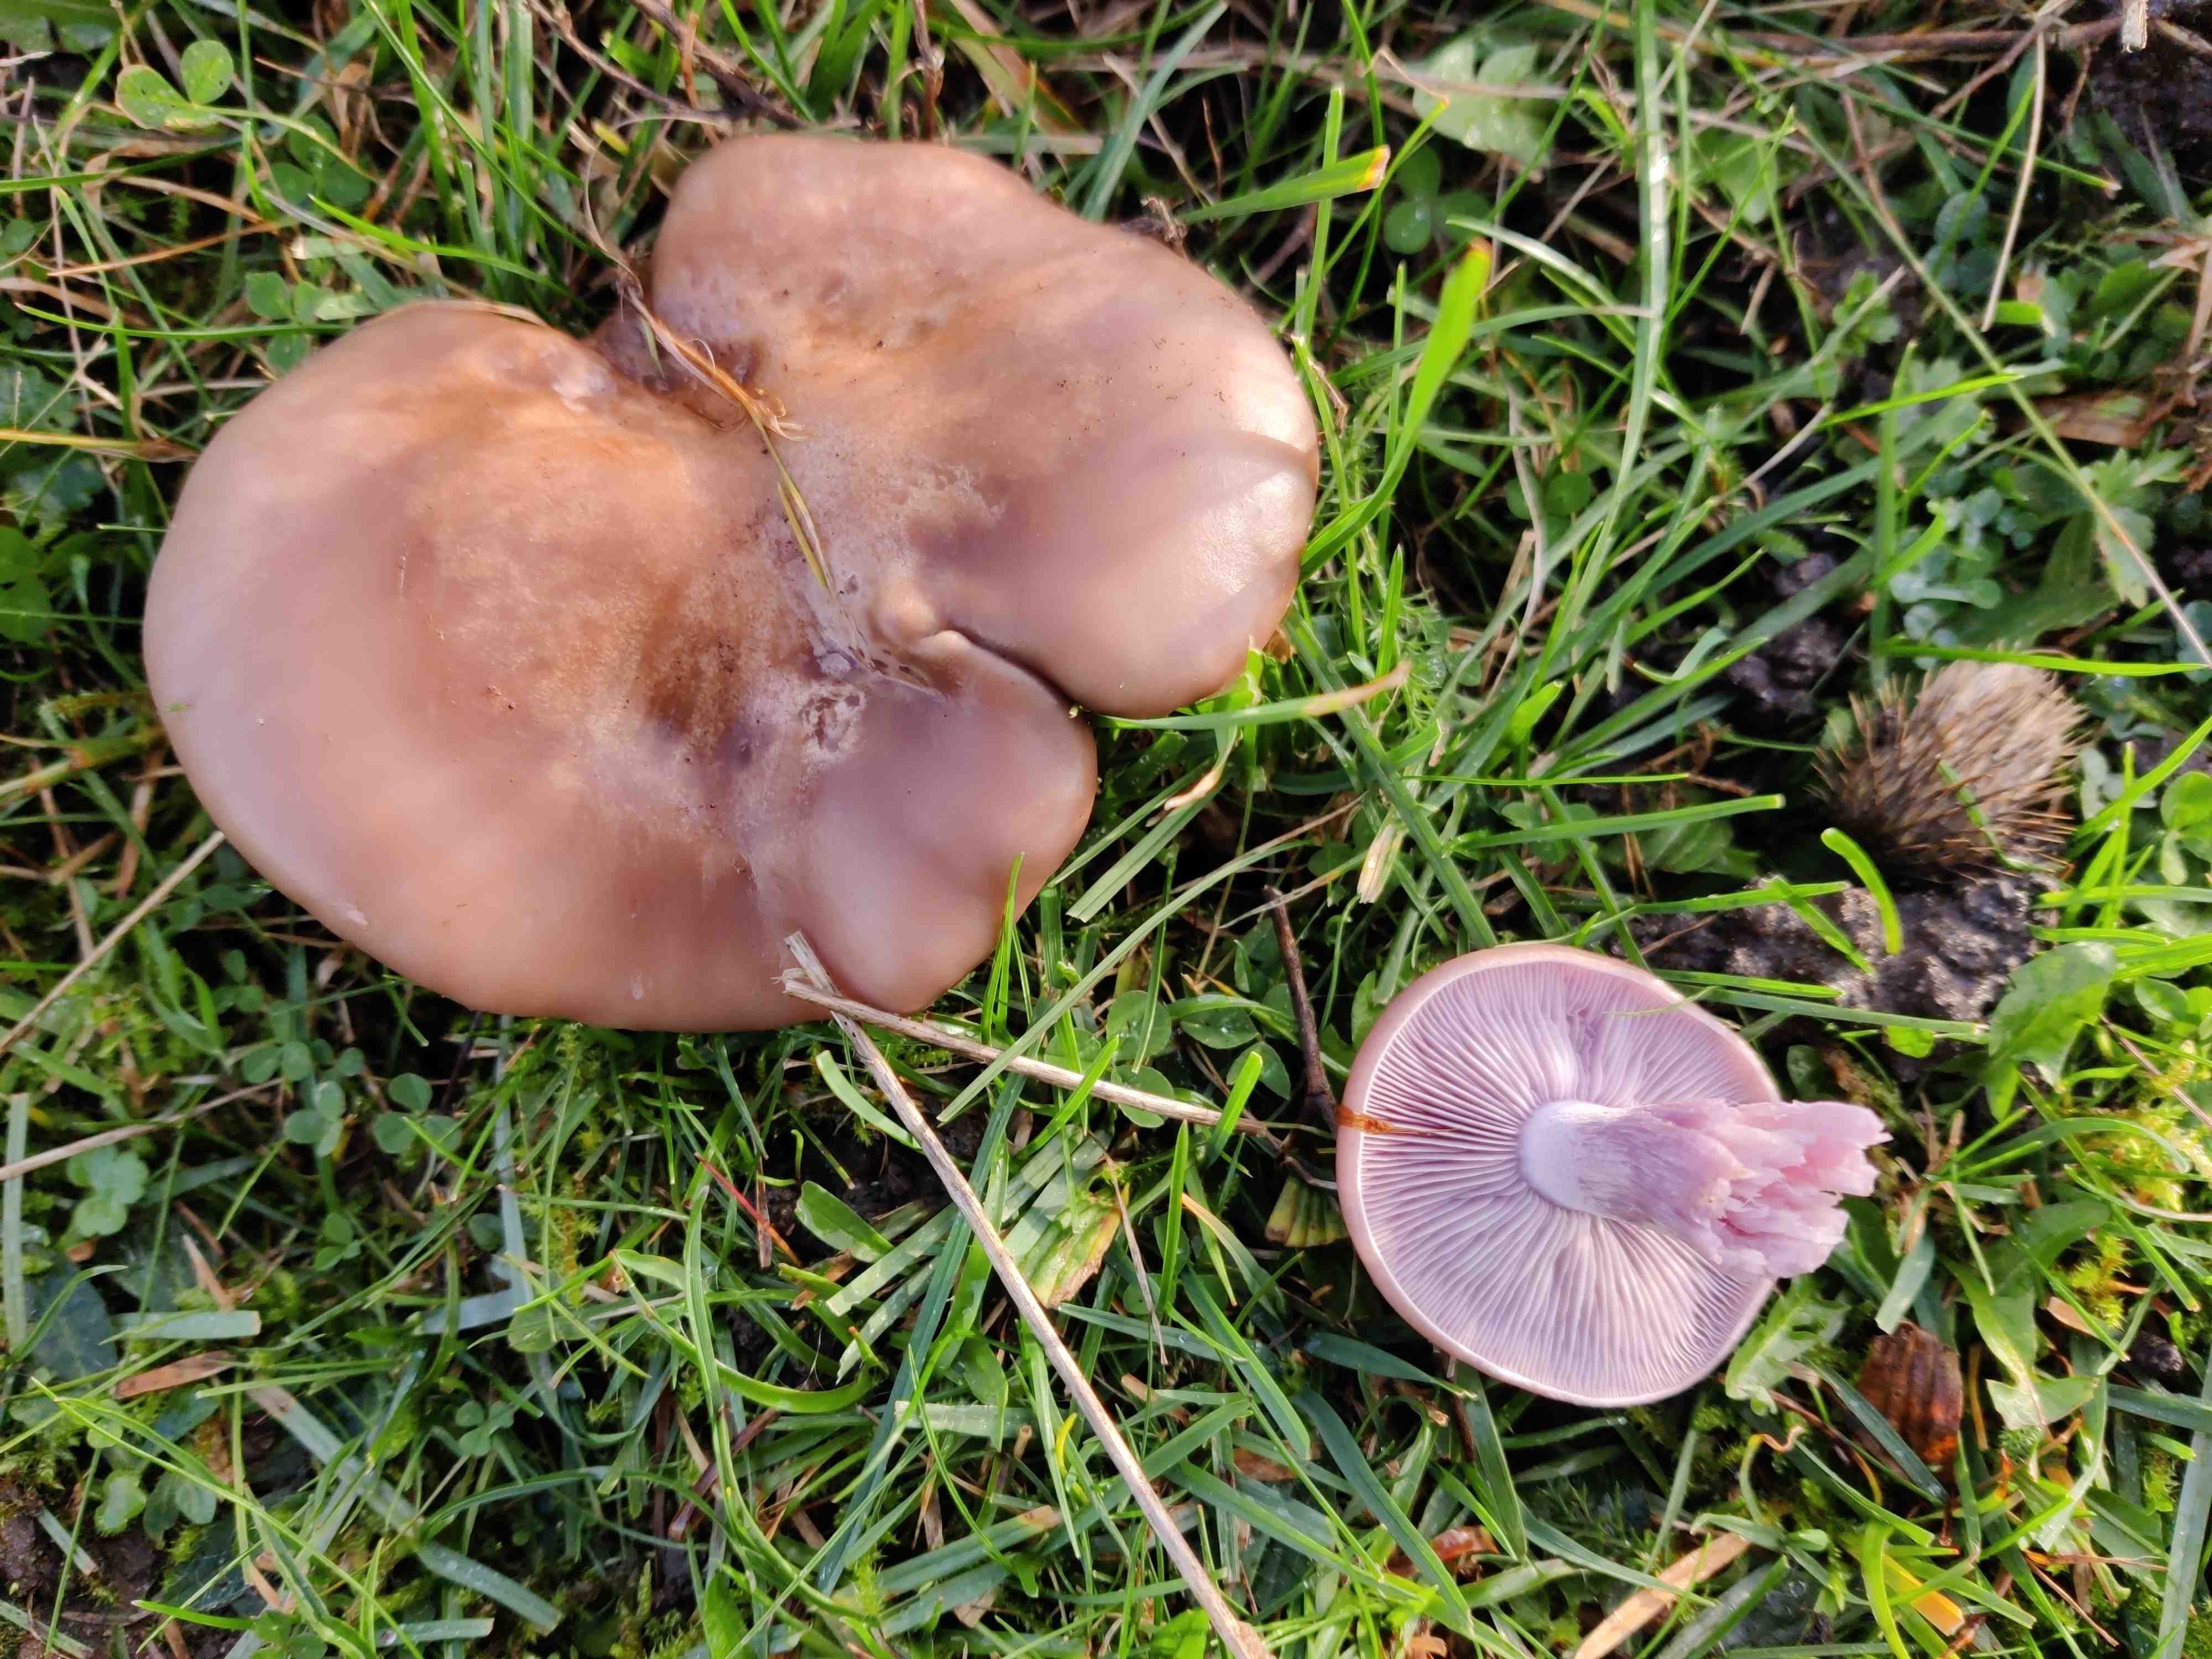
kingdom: Fungi
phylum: Basidiomycota
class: Agaricomycetes
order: Agaricales
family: Tricholomataceae
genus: Lepista
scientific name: Lepista nuda
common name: violet hekseringshat
